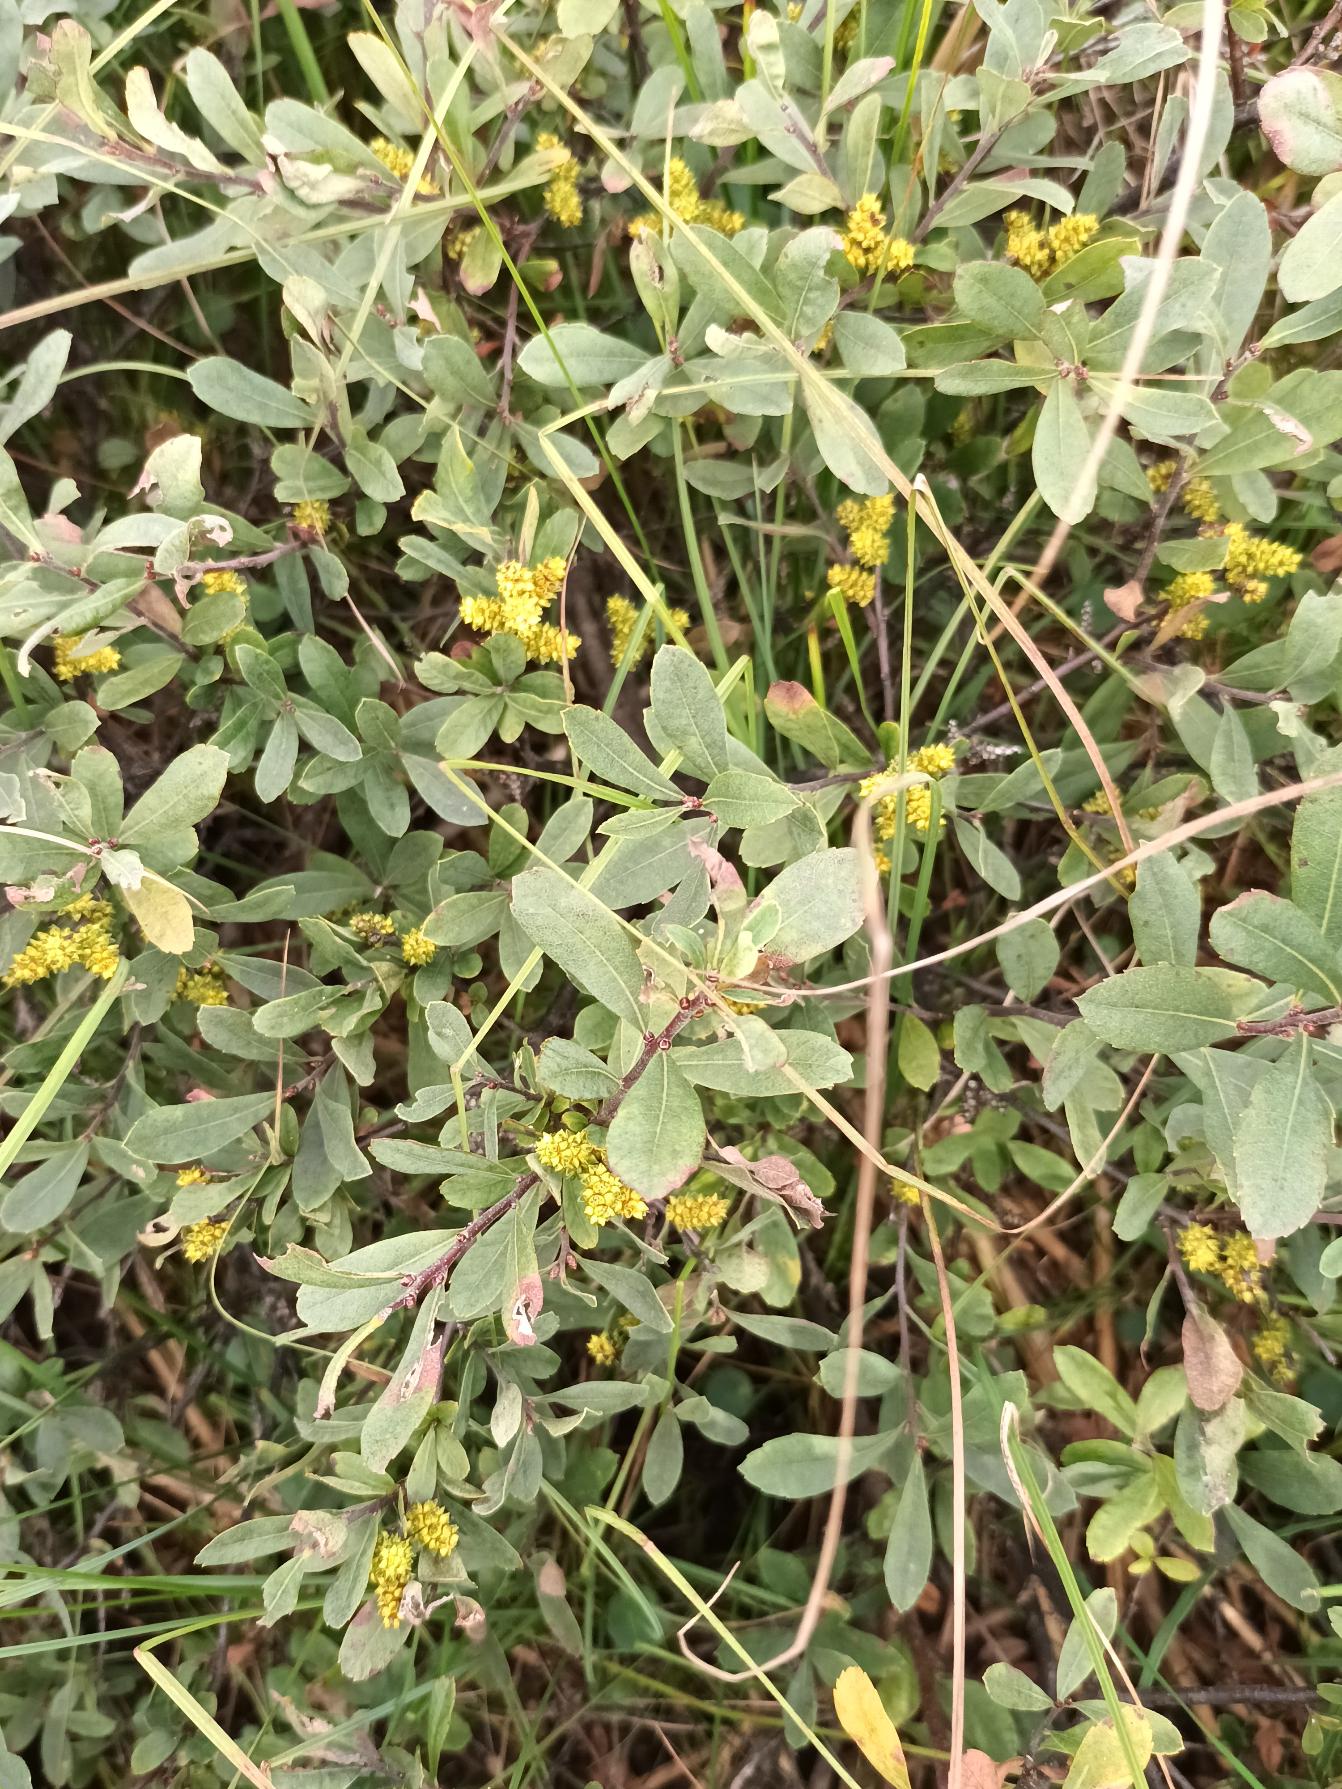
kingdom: Plantae
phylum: Tracheophyta
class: Magnoliopsida
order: Fagales
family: Myricaceae
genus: Myrica
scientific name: Myrica gale
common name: Pors
